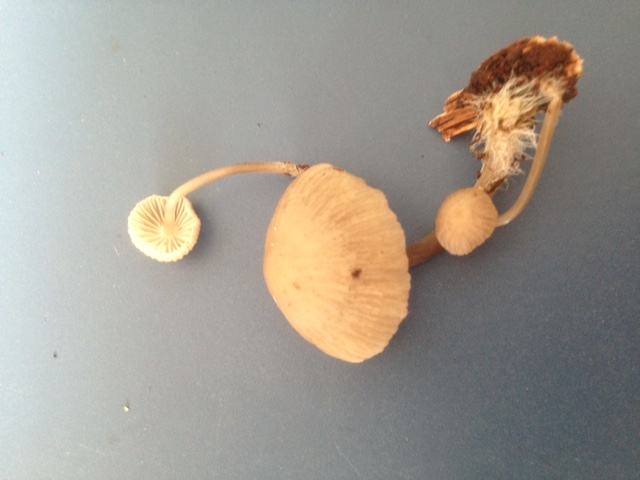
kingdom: Fungi
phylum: Basidiomycota
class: Agaricomycetes
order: Agaricales
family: Mycenaceae
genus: Mycena
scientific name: Mycena
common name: huesvamp
